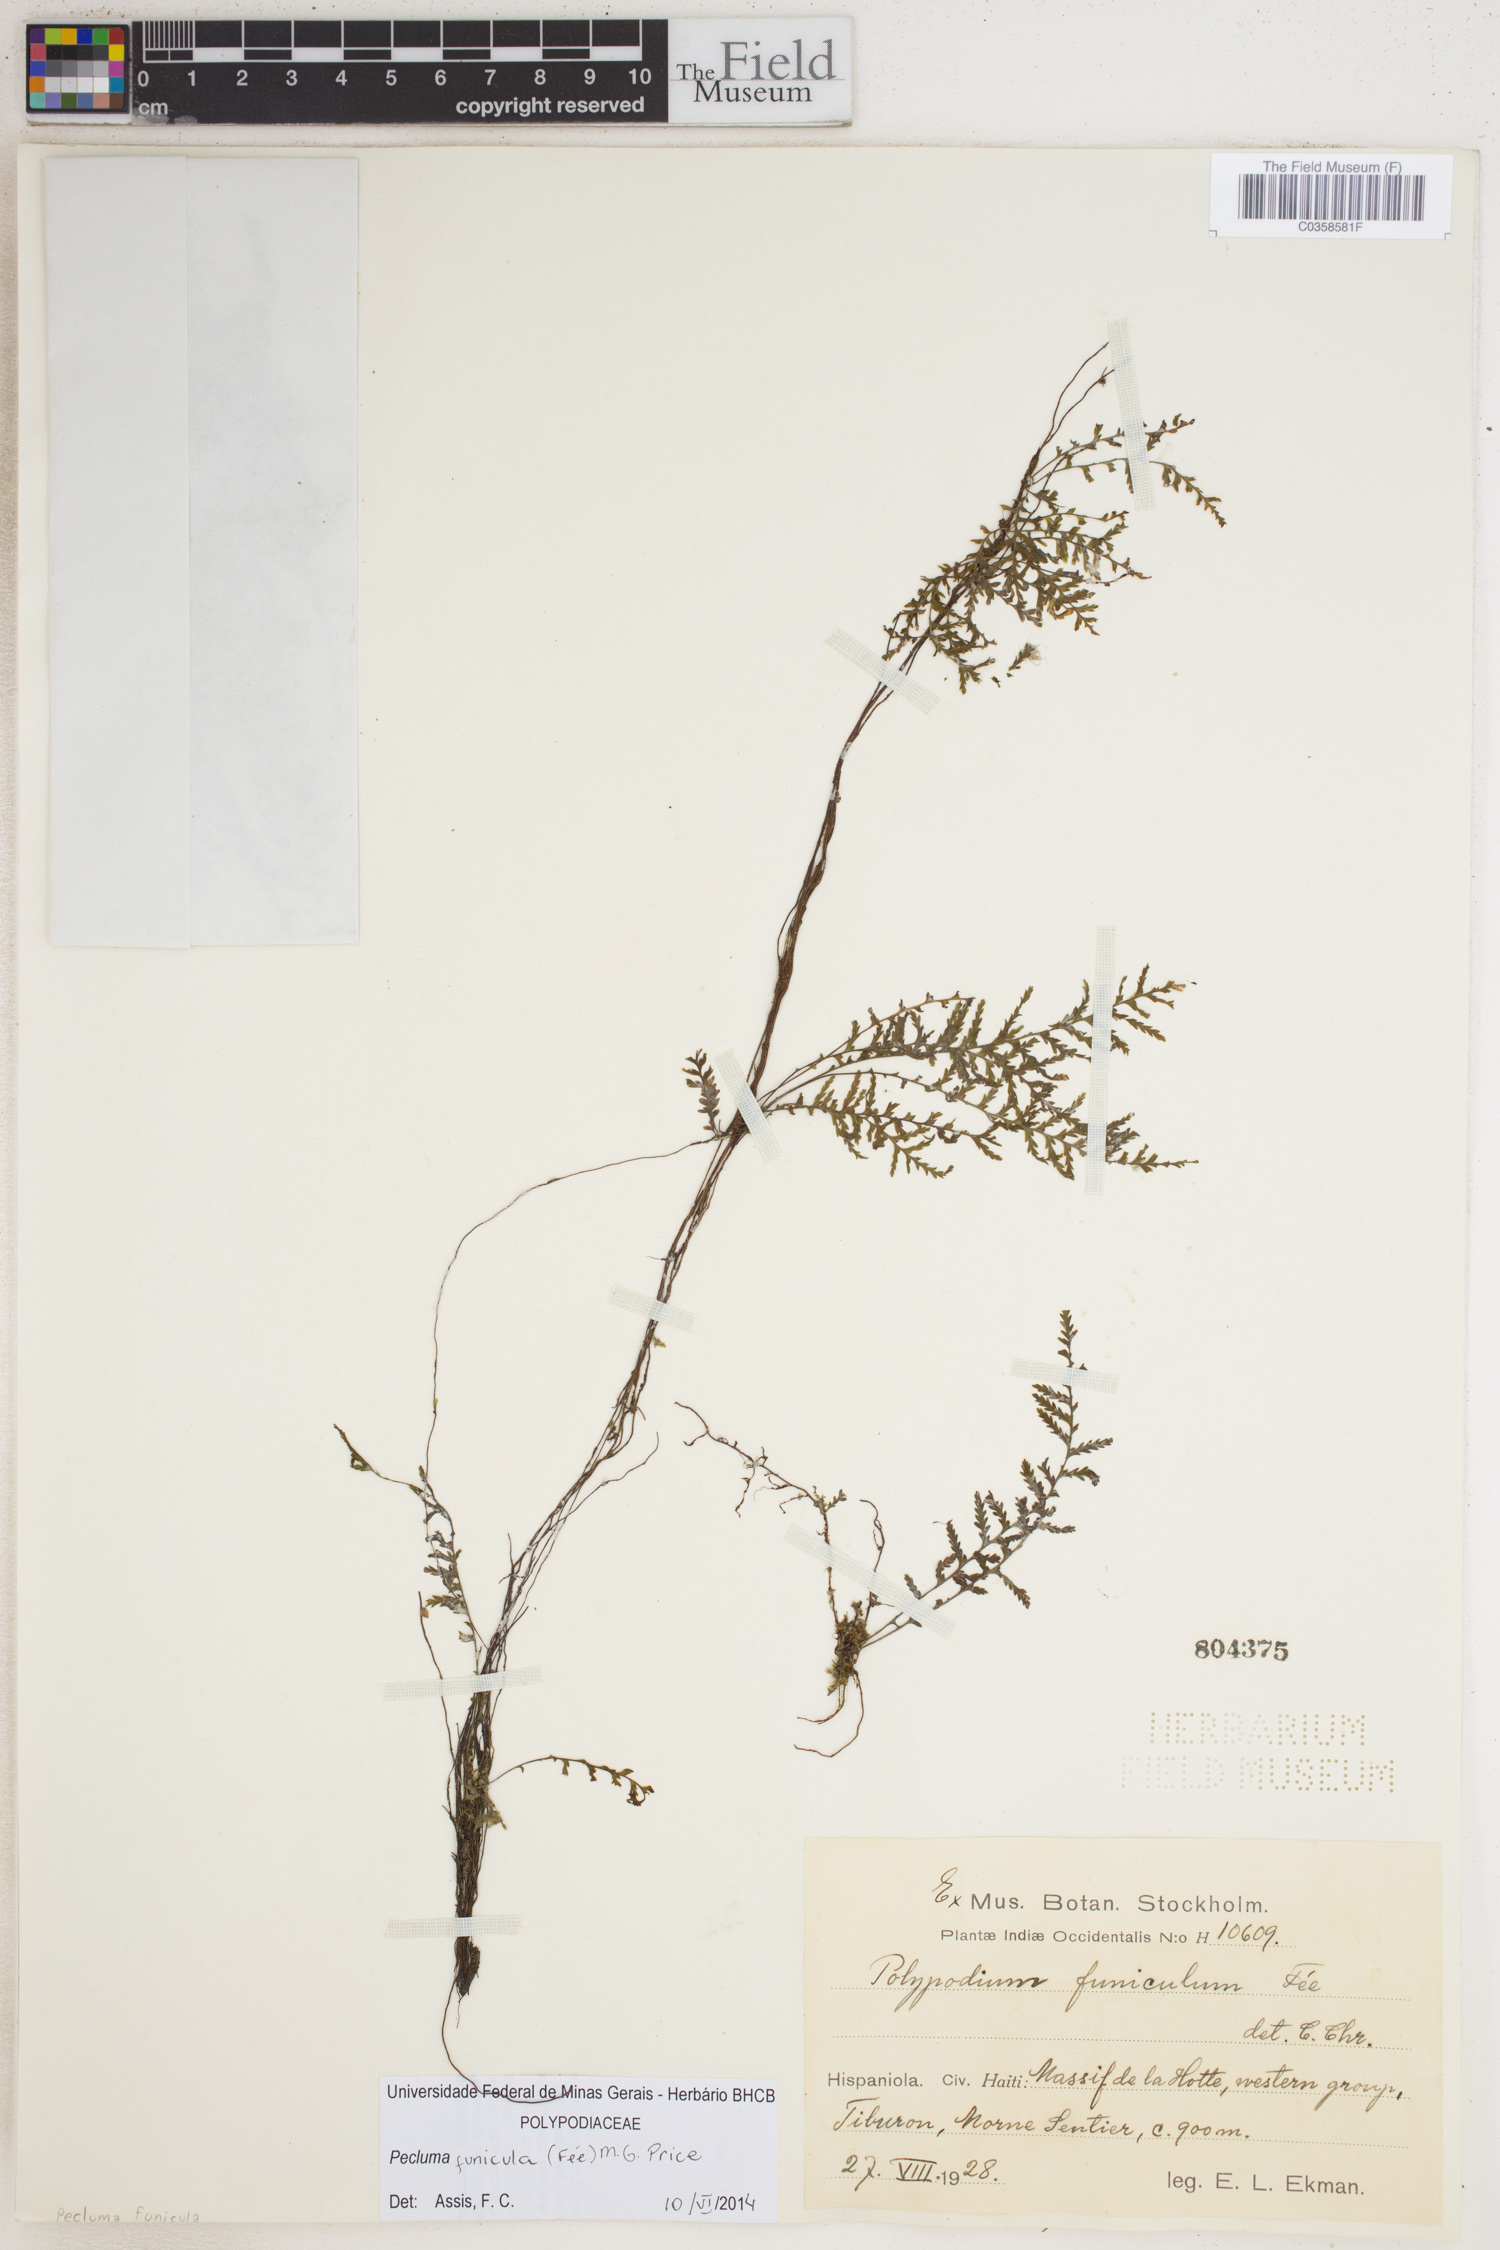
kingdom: Plantae
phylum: Tracheophyta
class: Polypodiopsida
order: Polypodiales
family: Polypodiaceae
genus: Pecluma
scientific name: Pecluma funicula
